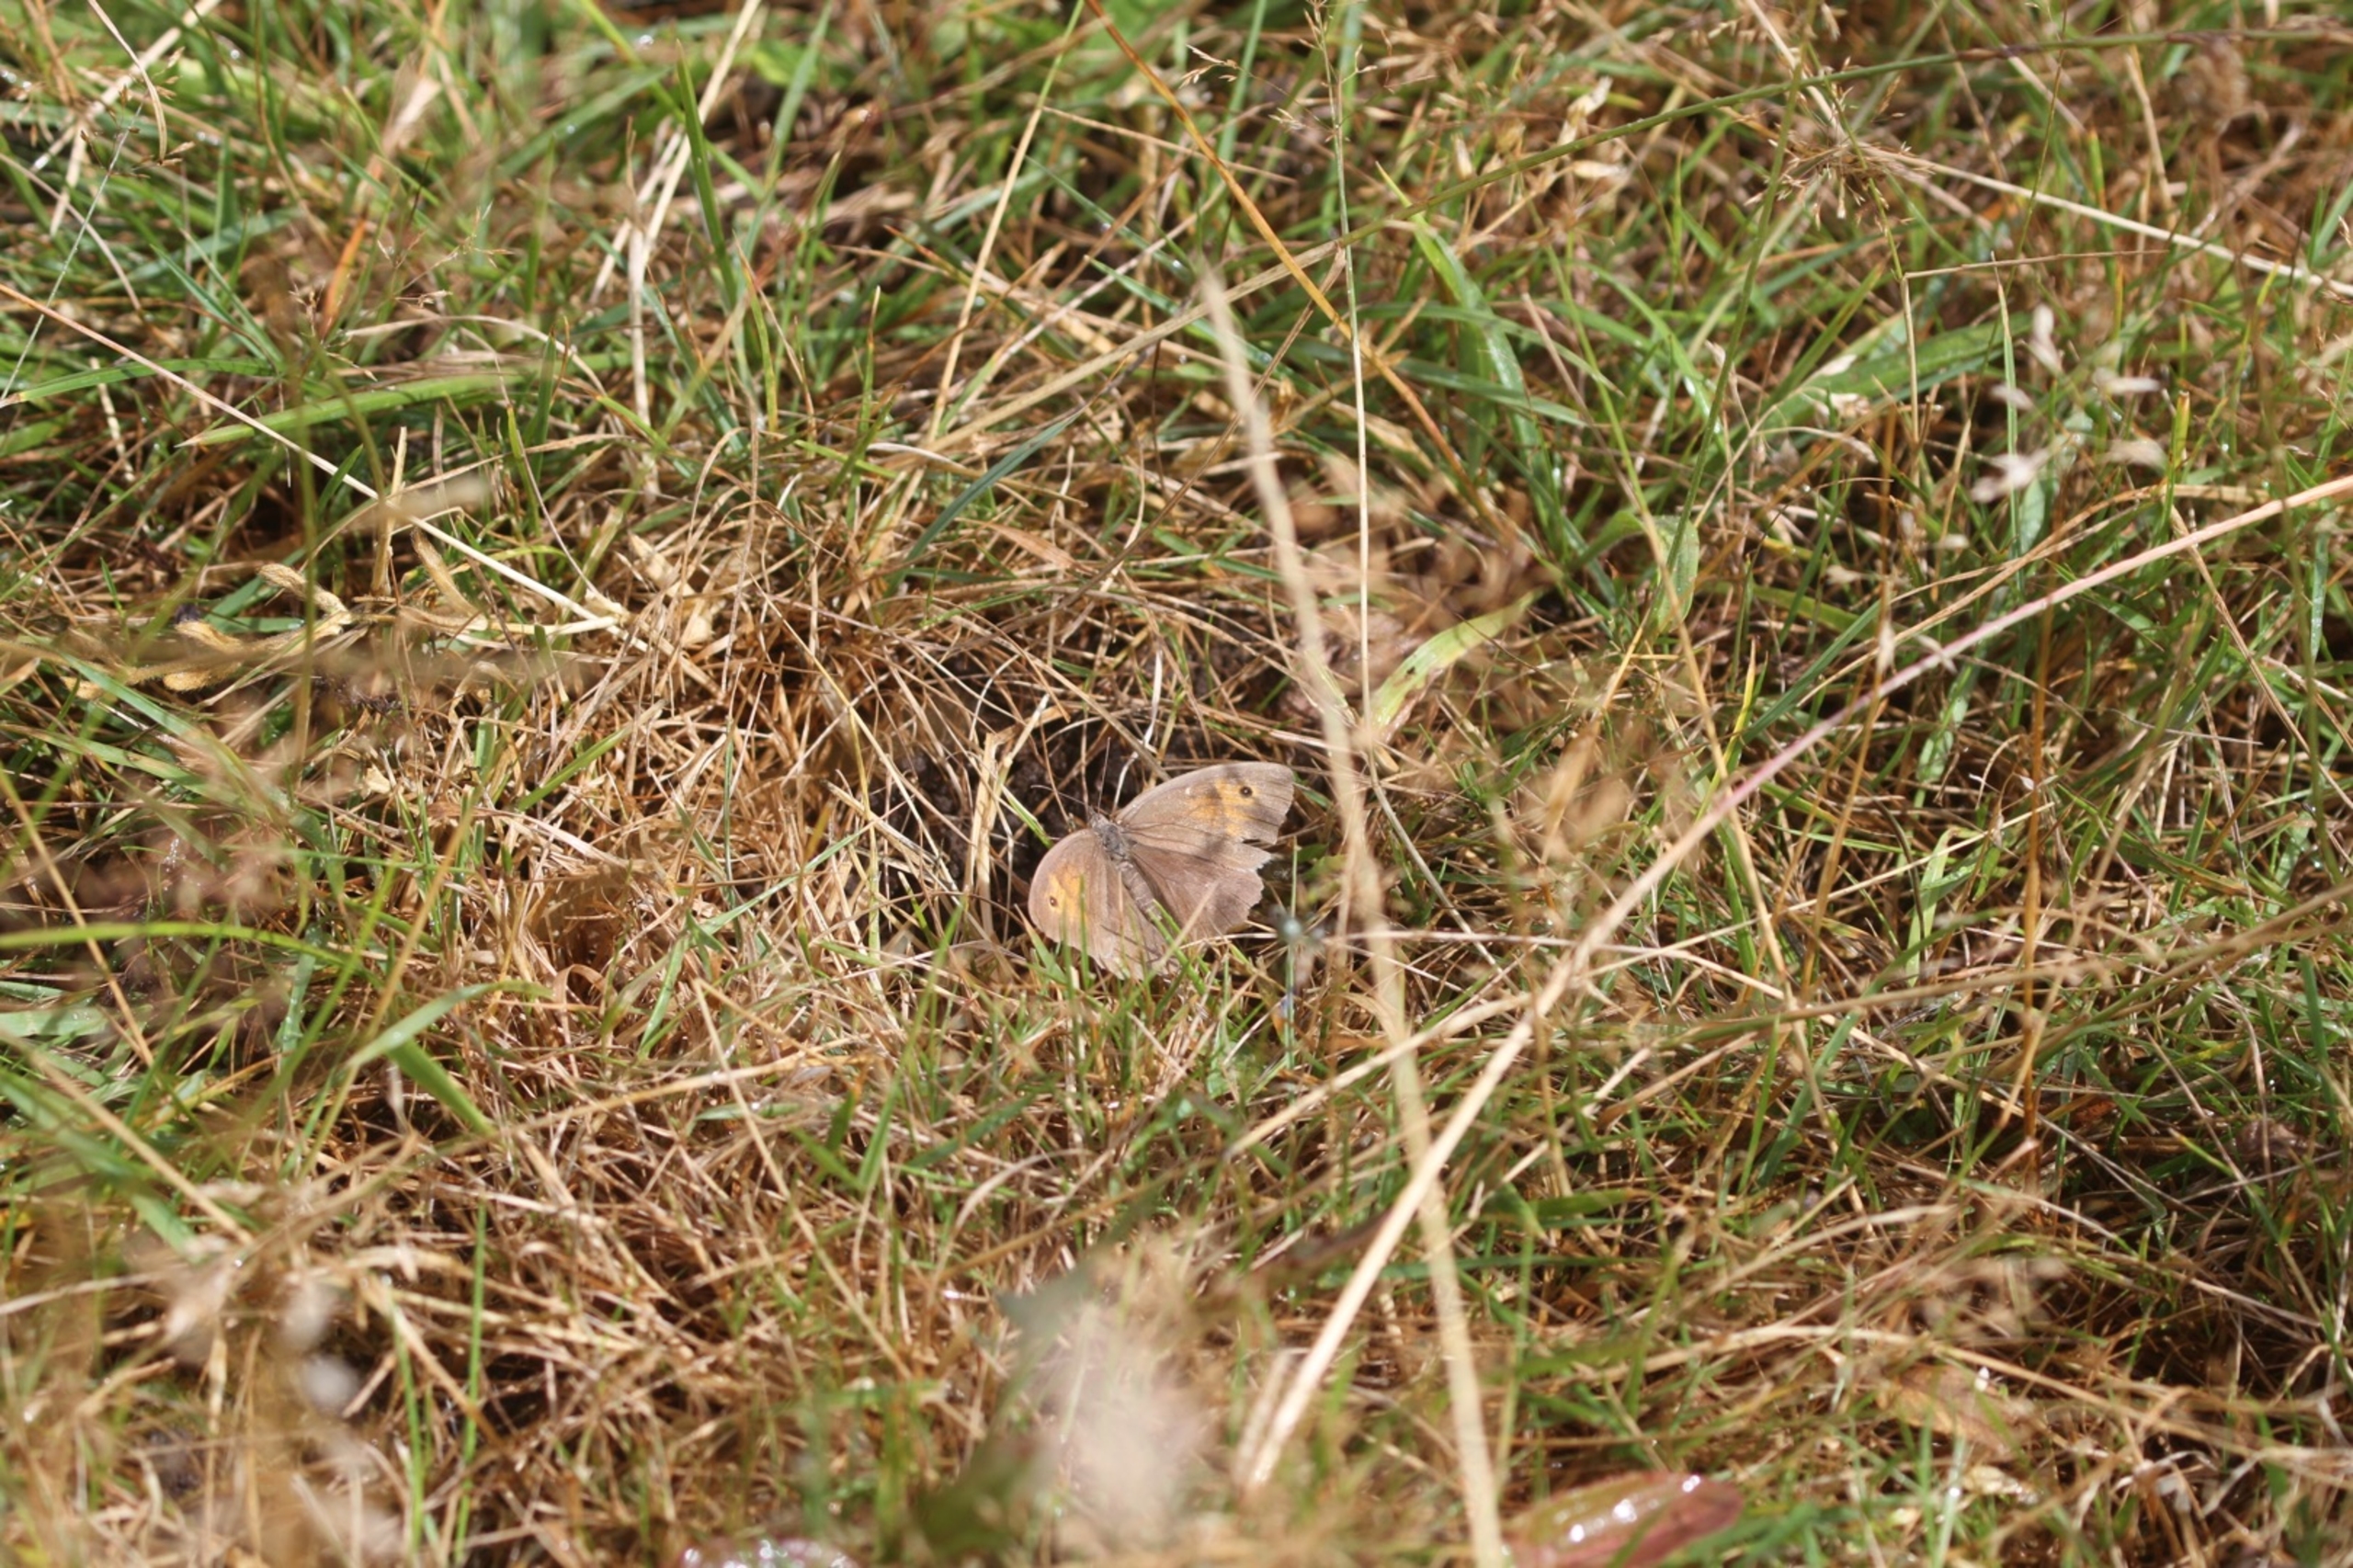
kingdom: Animalia
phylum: Arthropoda
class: Insecta
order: Lepidoptera
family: Nymphalidae
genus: Maniola
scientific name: Maniola jurtina
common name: Græsrandøje
